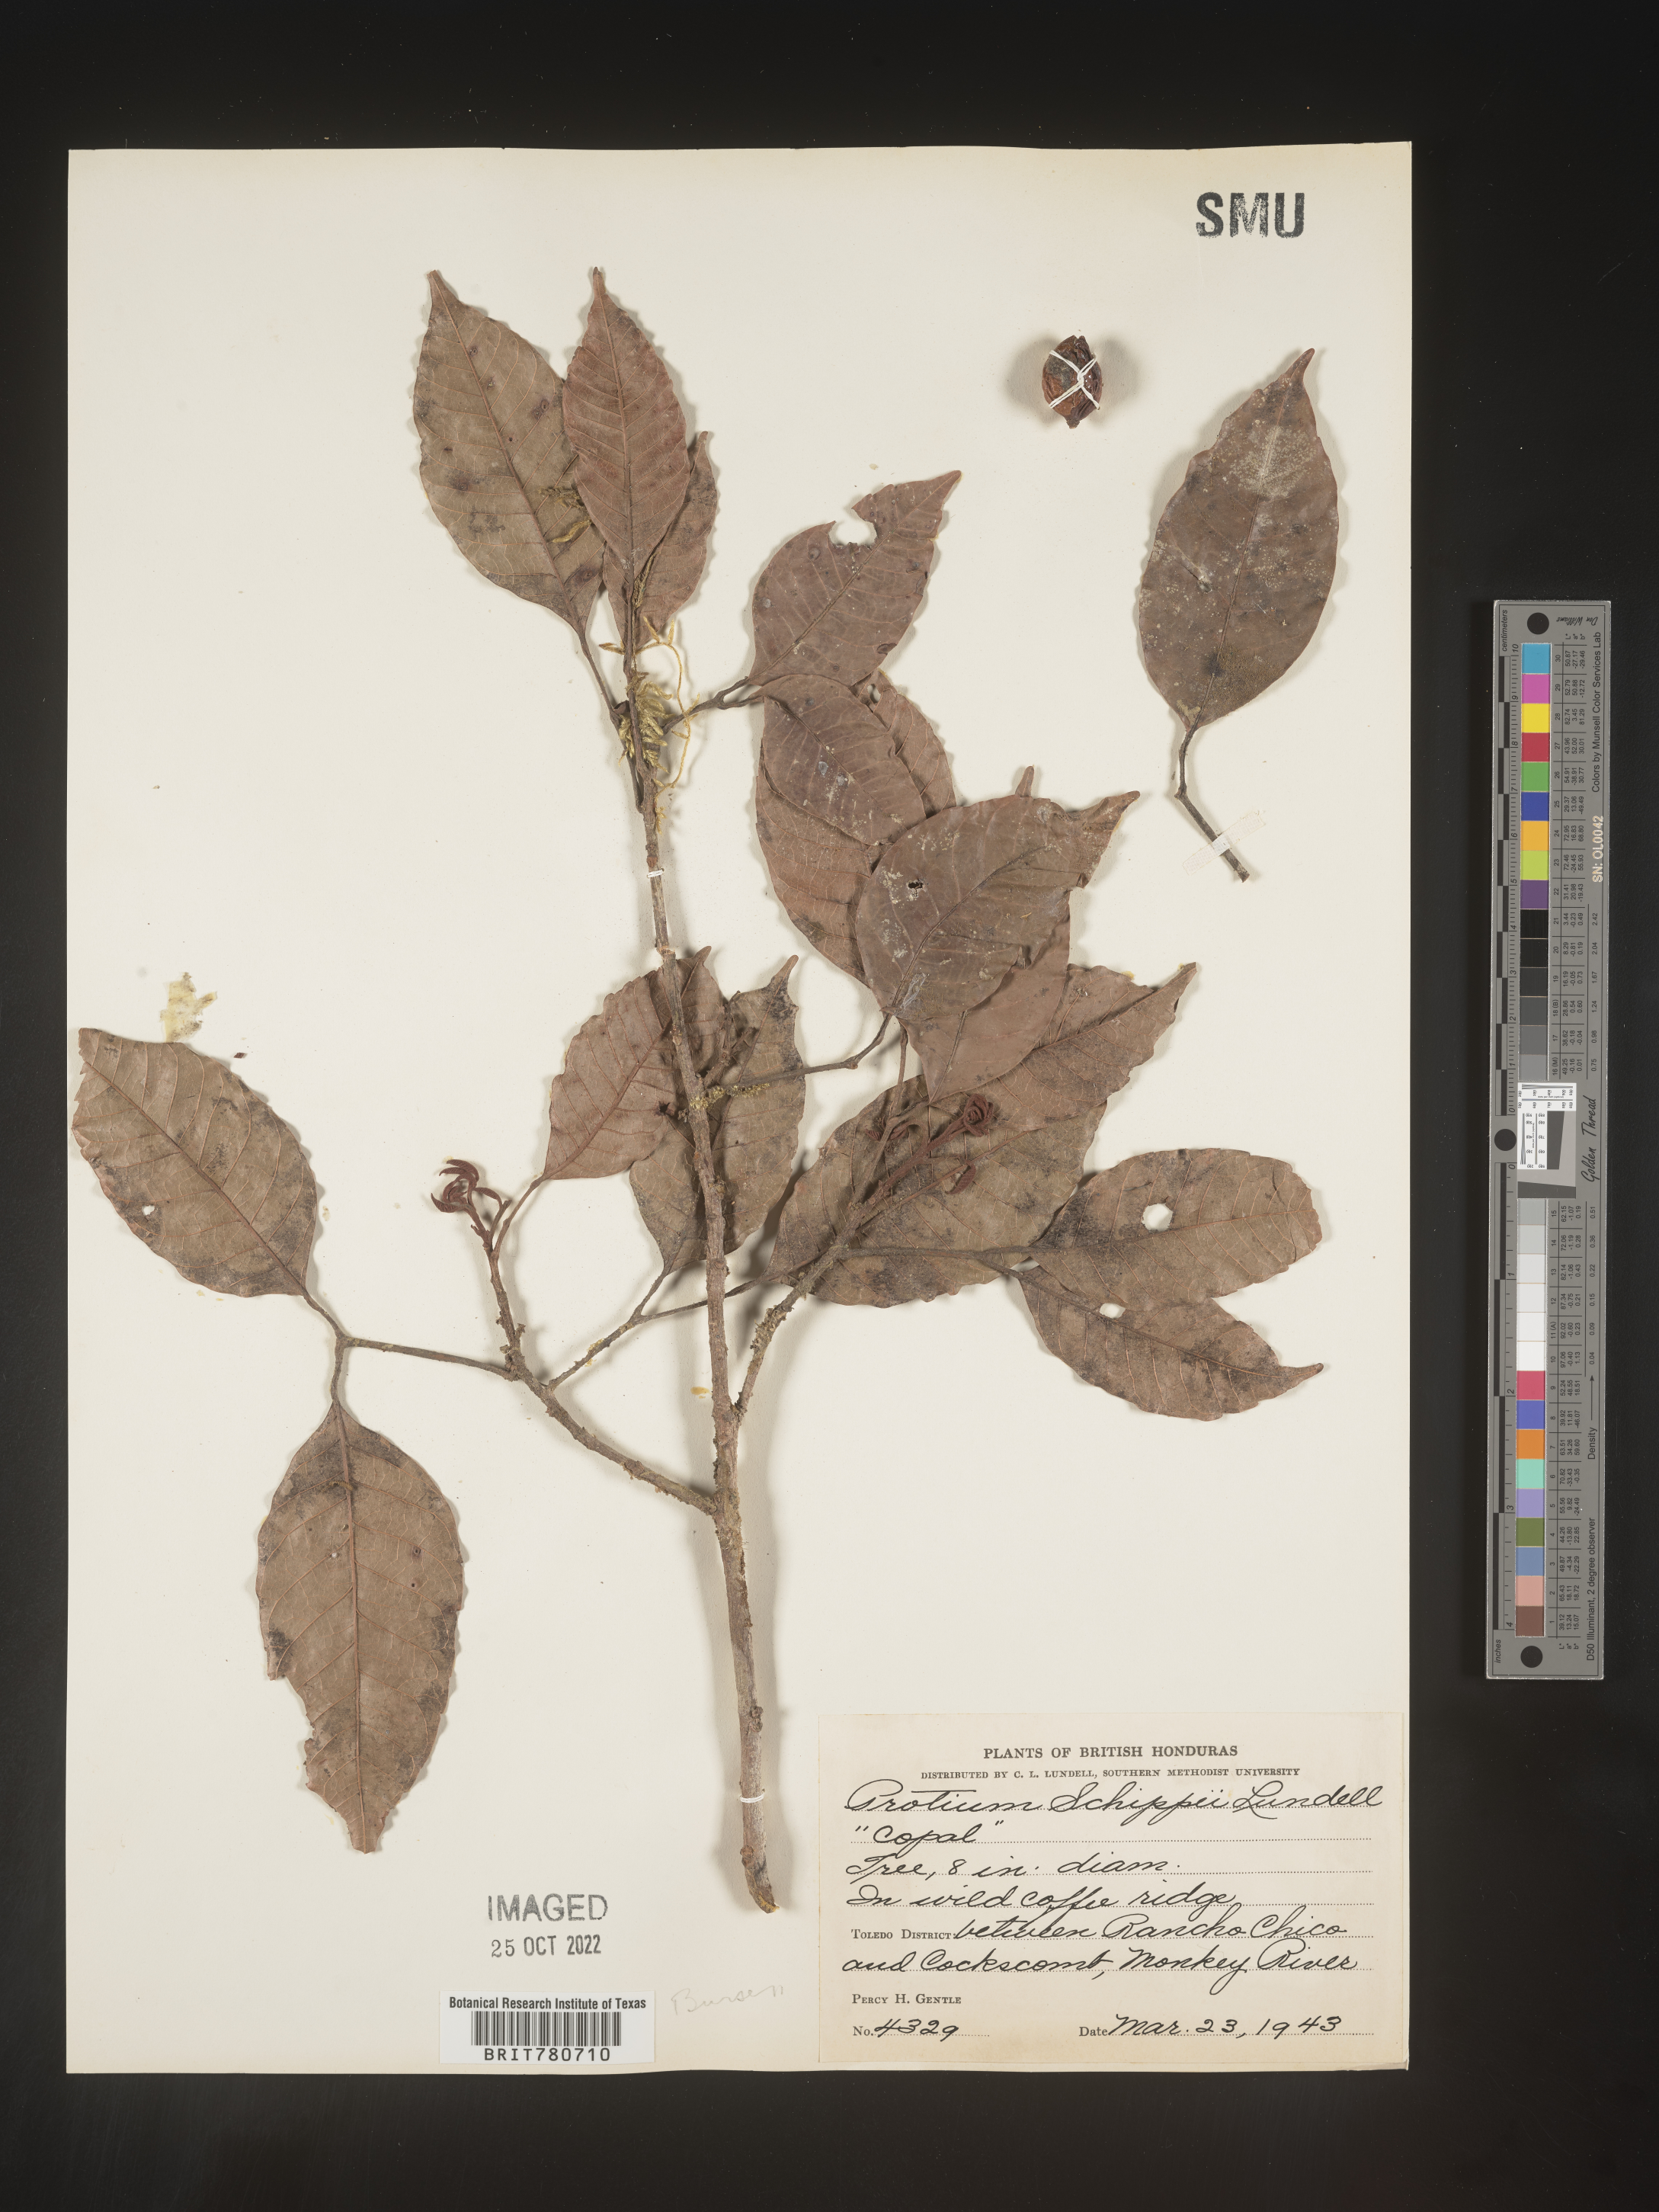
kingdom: Plantae
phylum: Tracheophyta
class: Magnoliopsida
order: Sapindales
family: Burseraceae
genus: Protium
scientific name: Protium
